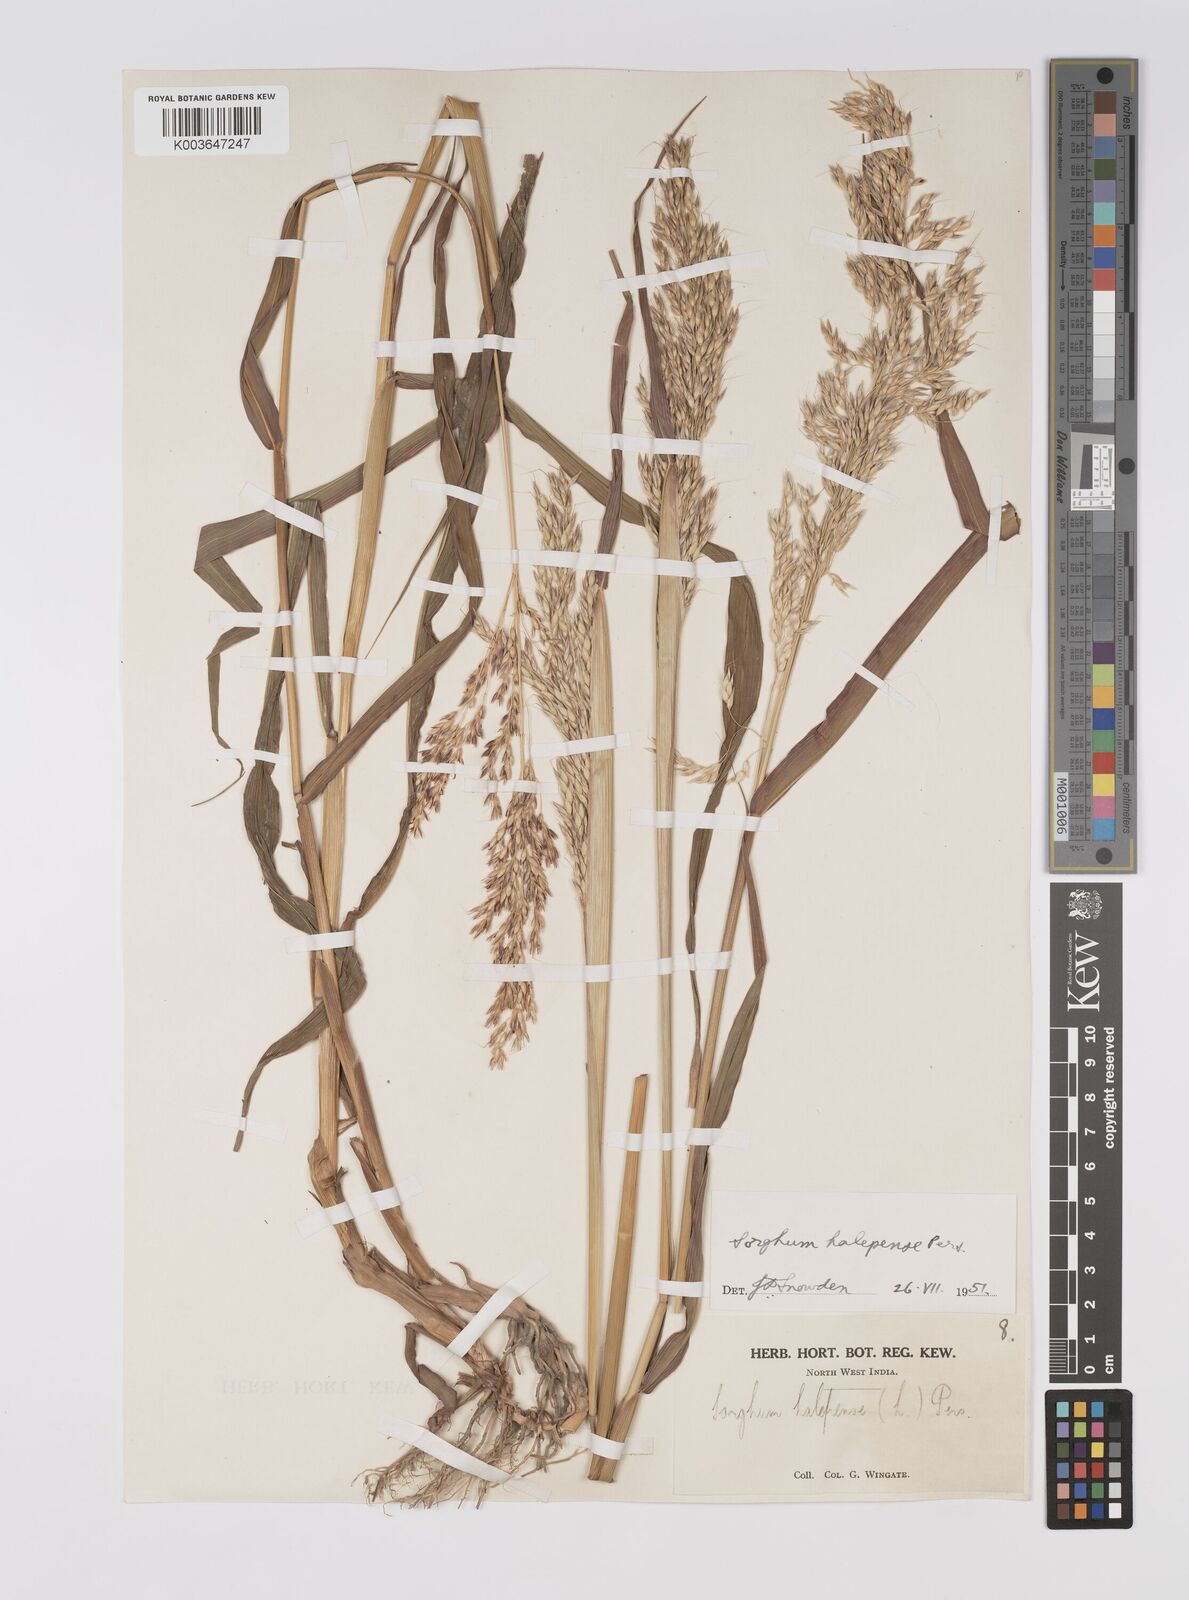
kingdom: Plantae
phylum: Tracheophyta
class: Liliopsida
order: Poales
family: Poaceae
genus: Sorghum
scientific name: Sorghum halepense
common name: Johnson-grass
